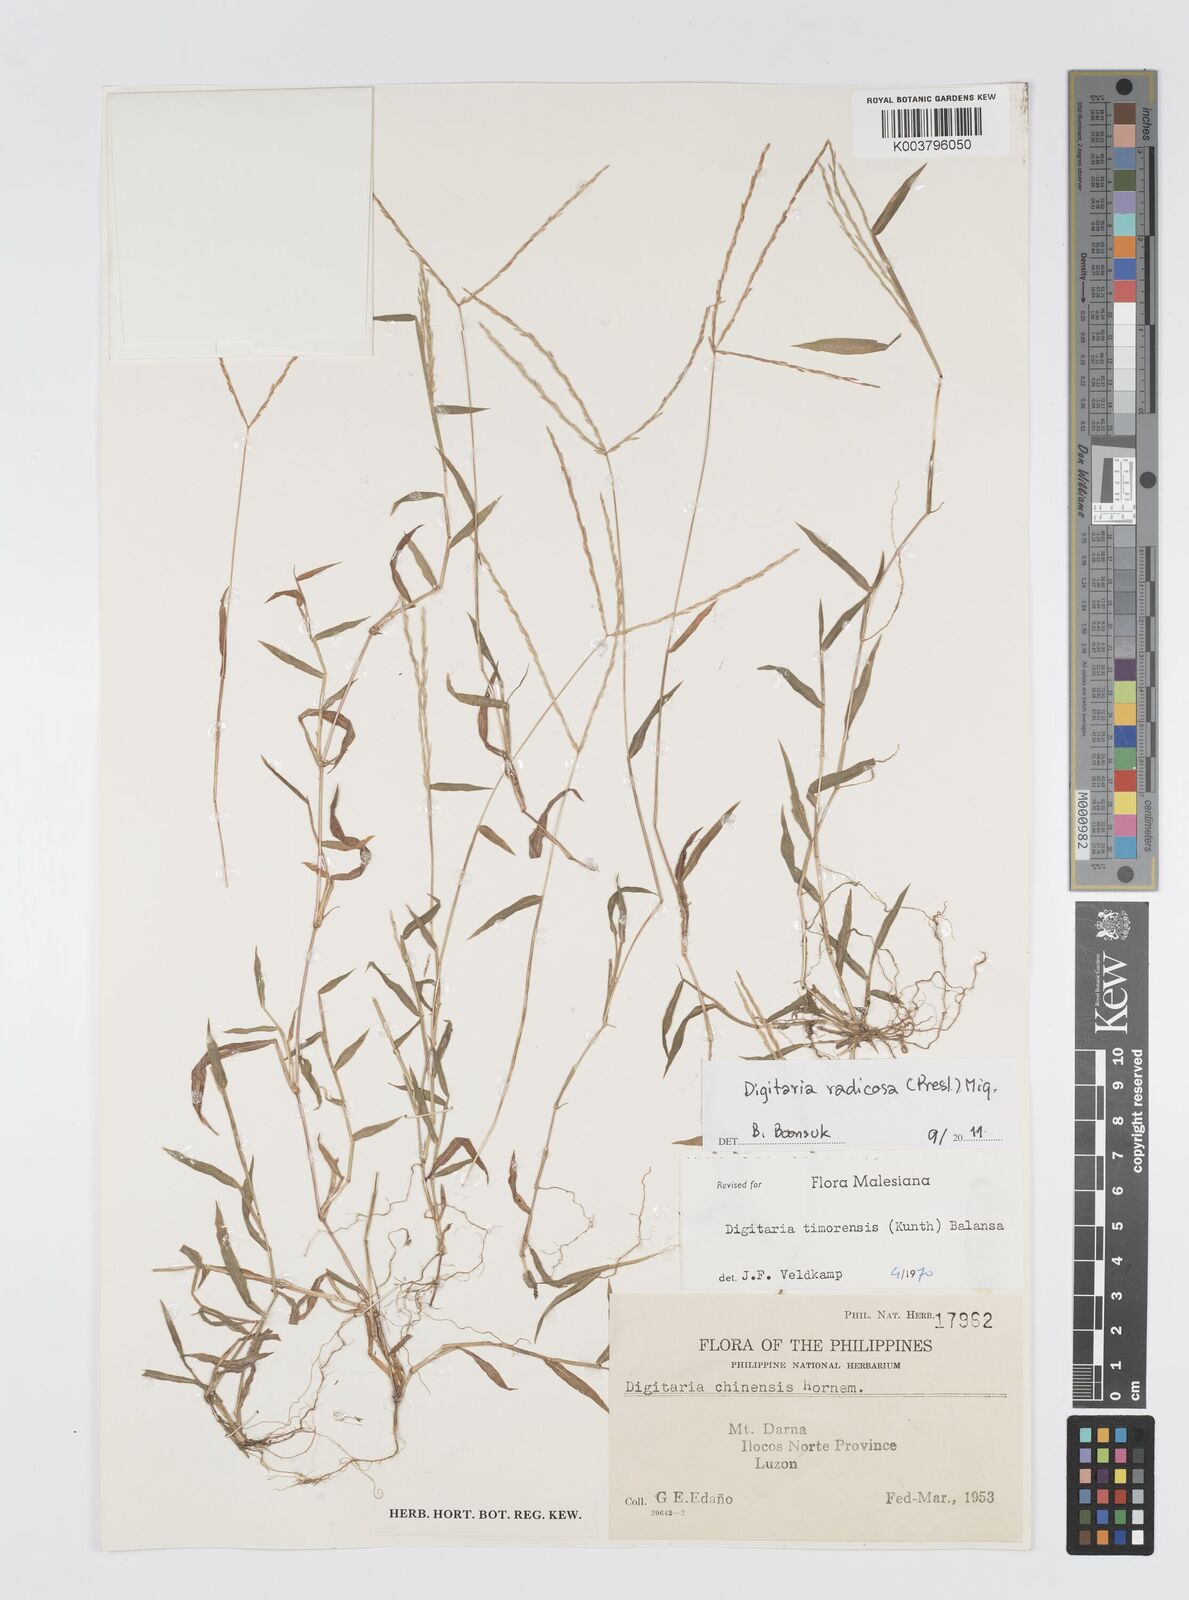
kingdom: Plantae
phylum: Tracheophyta
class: Liliopsida
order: Poales
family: Poaceae
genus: Digitaria
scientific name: Digitaria radicosa
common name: Trailing crabgrass
